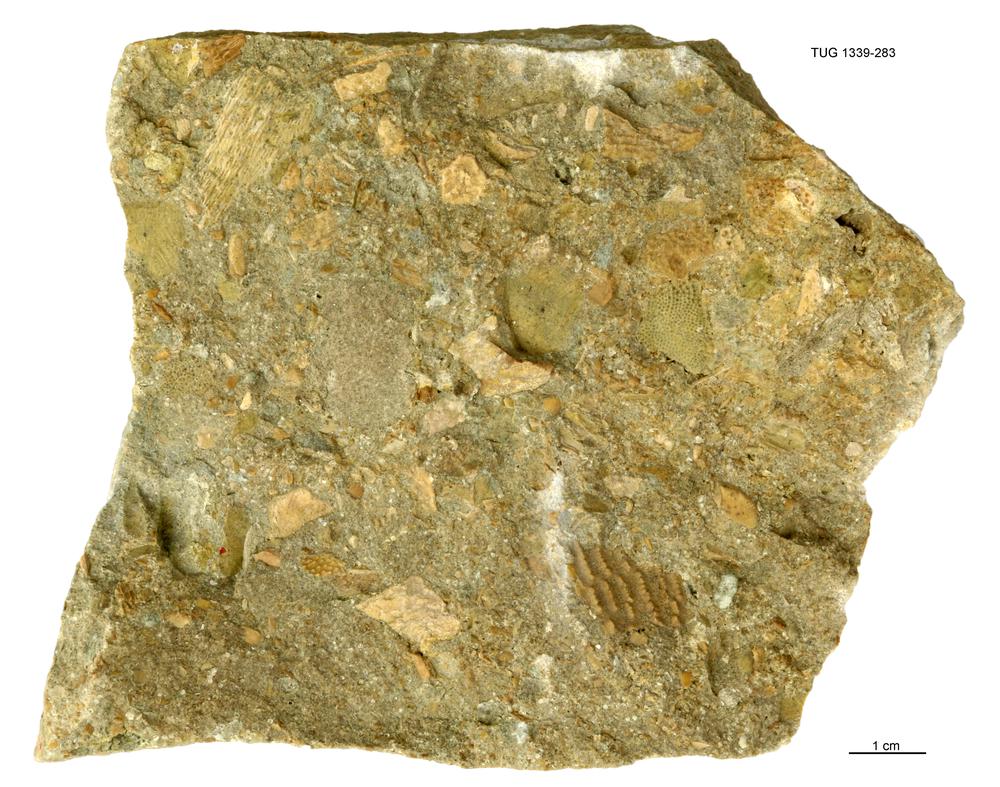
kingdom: Animalia
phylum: Chordata
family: Holonematidae
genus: Deirosteus
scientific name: Deirosteus
